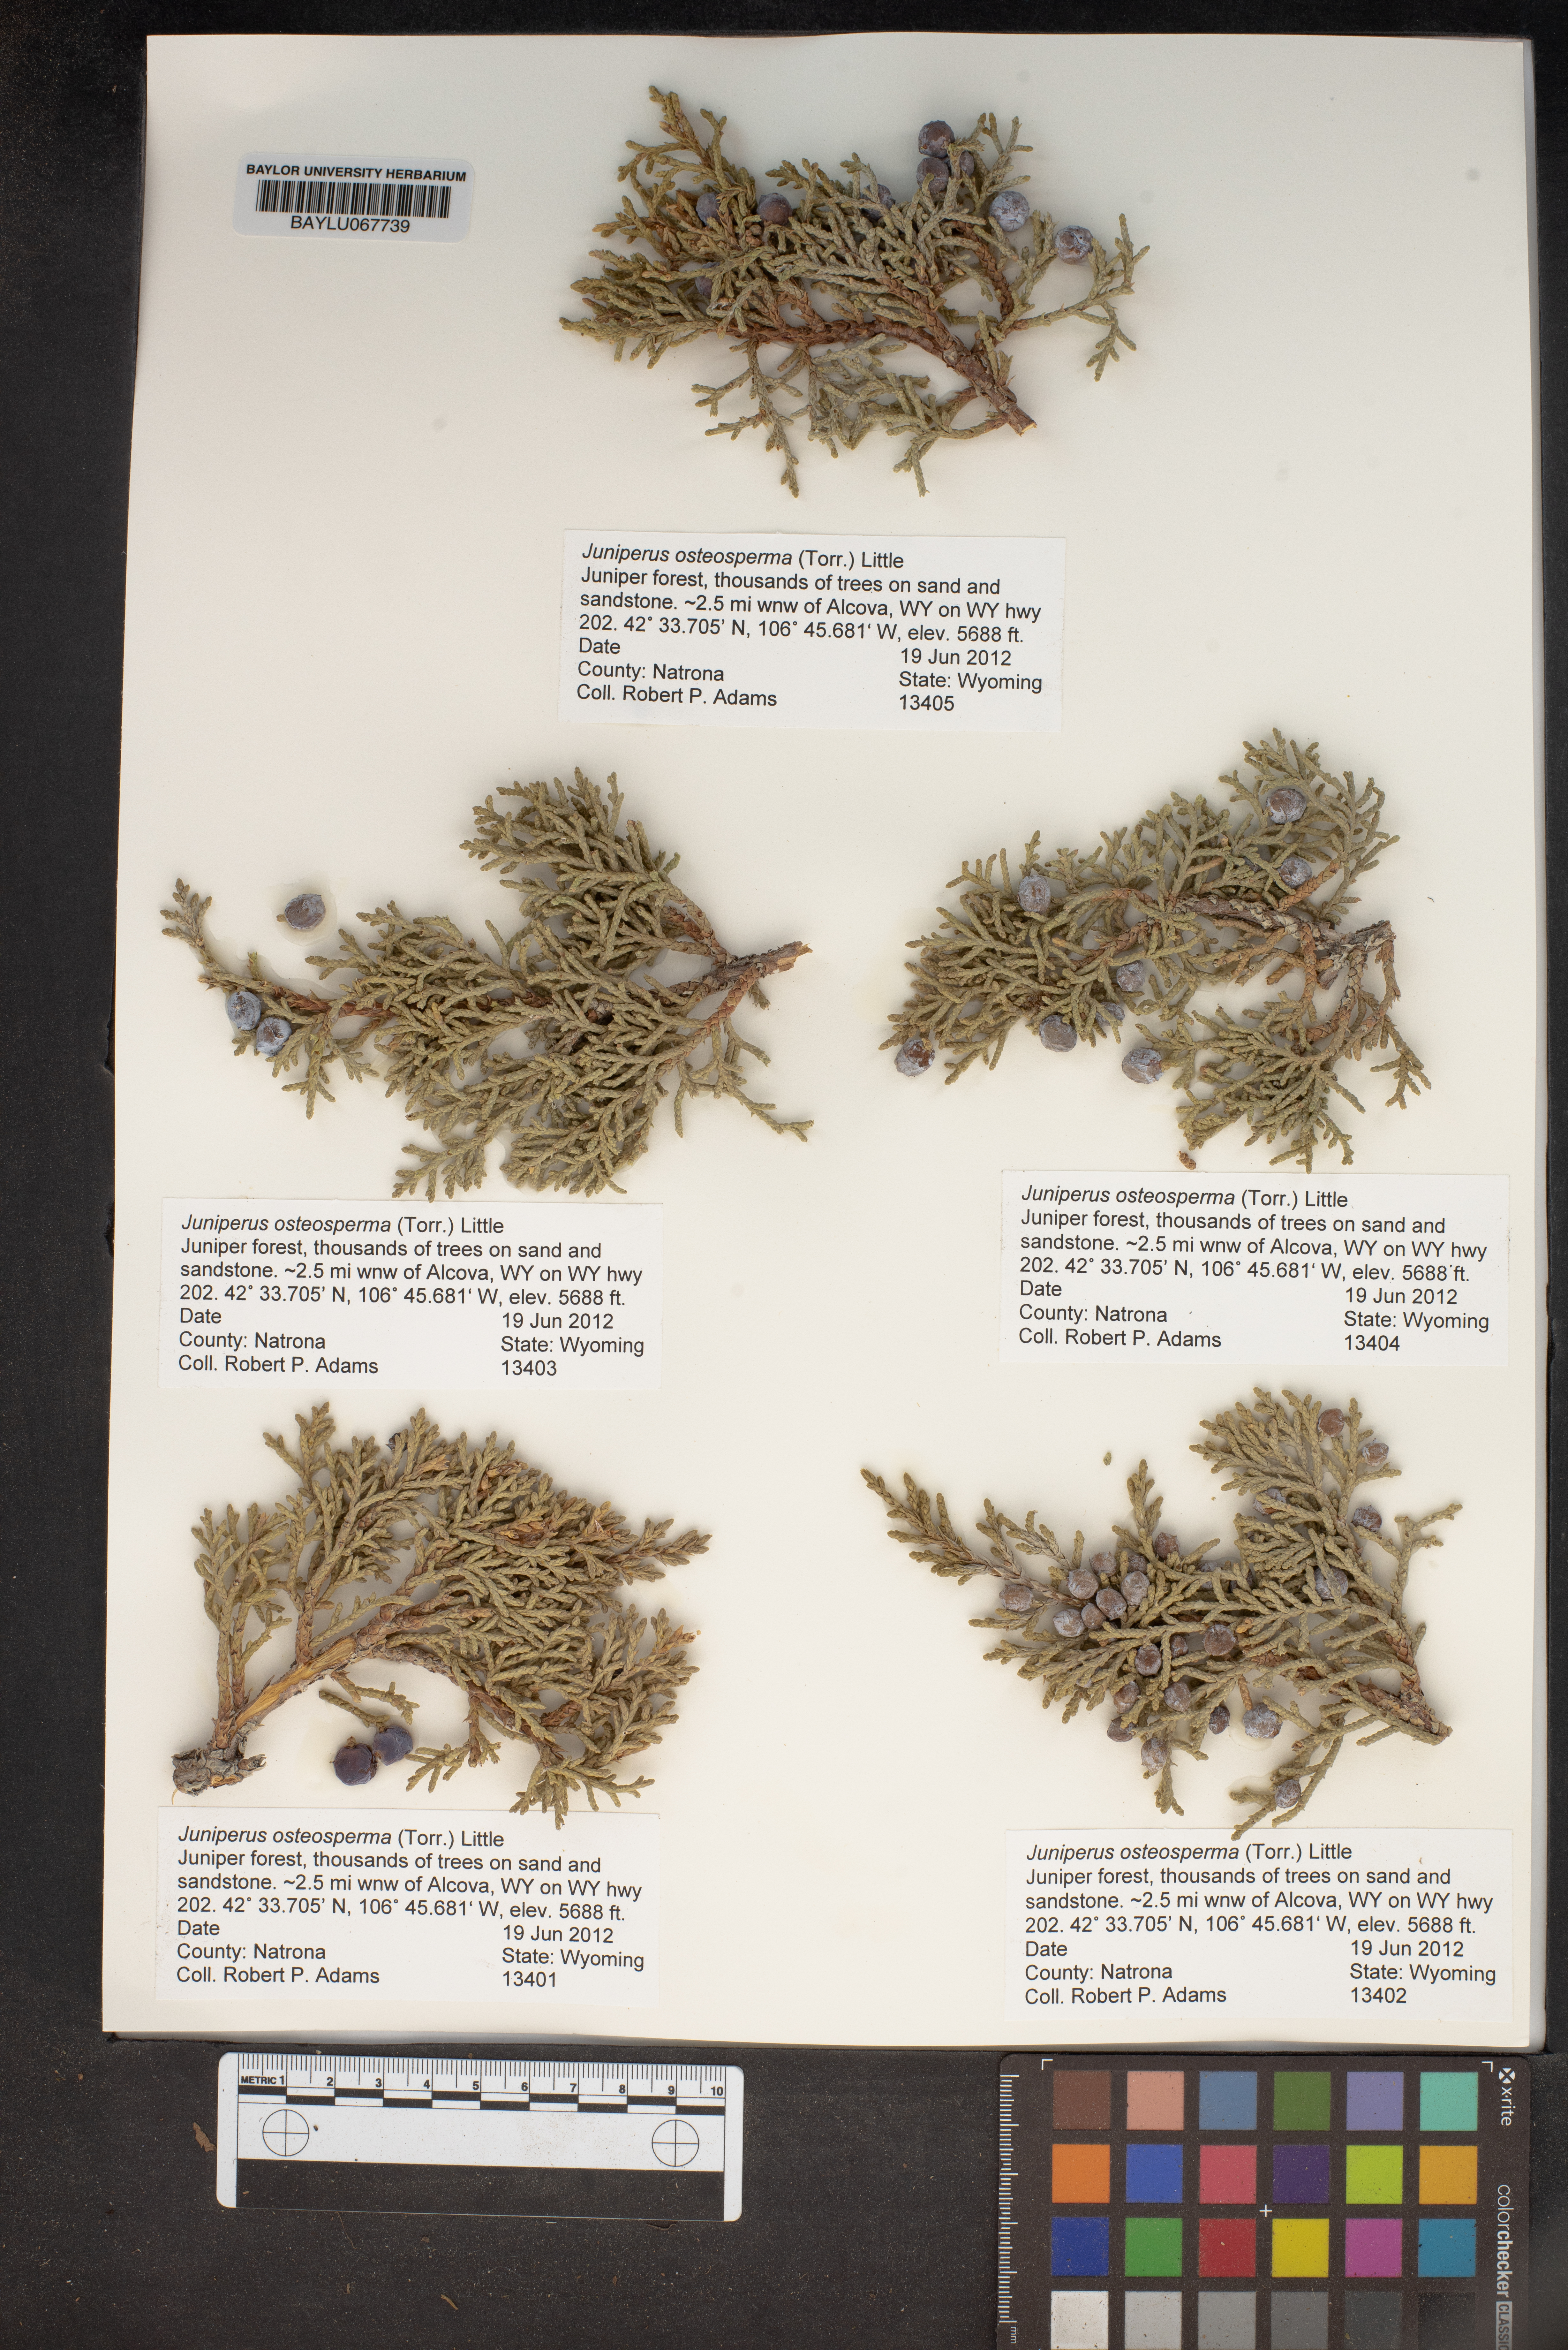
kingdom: Plantae
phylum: Tracheophyta
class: Pinopsida
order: Pinales
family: Cupressaceae
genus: Juniperus
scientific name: Juniperus osteosperma
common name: Utah juniper
